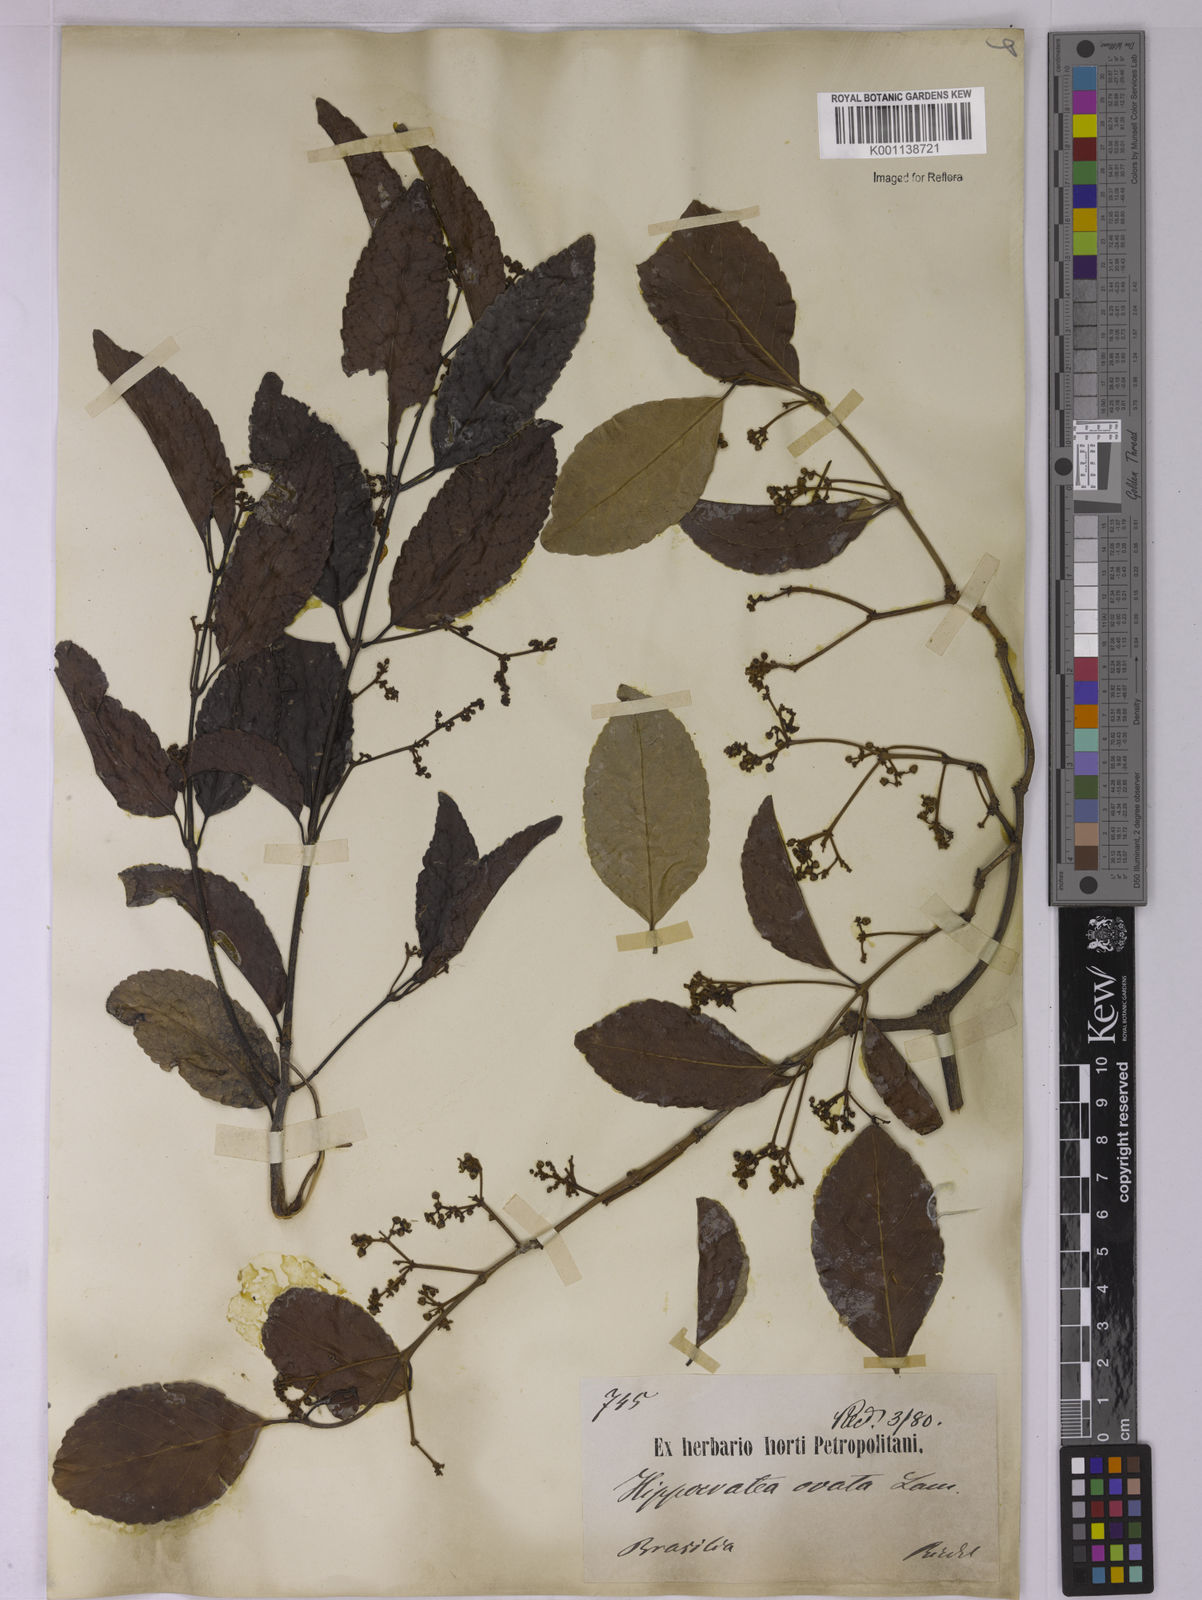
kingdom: Plantae
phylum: Tracheophyta
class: Magnoliopsida
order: Celastrales
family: Celastraceae
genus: Hippocratea
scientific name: Hippocratea volubilis
